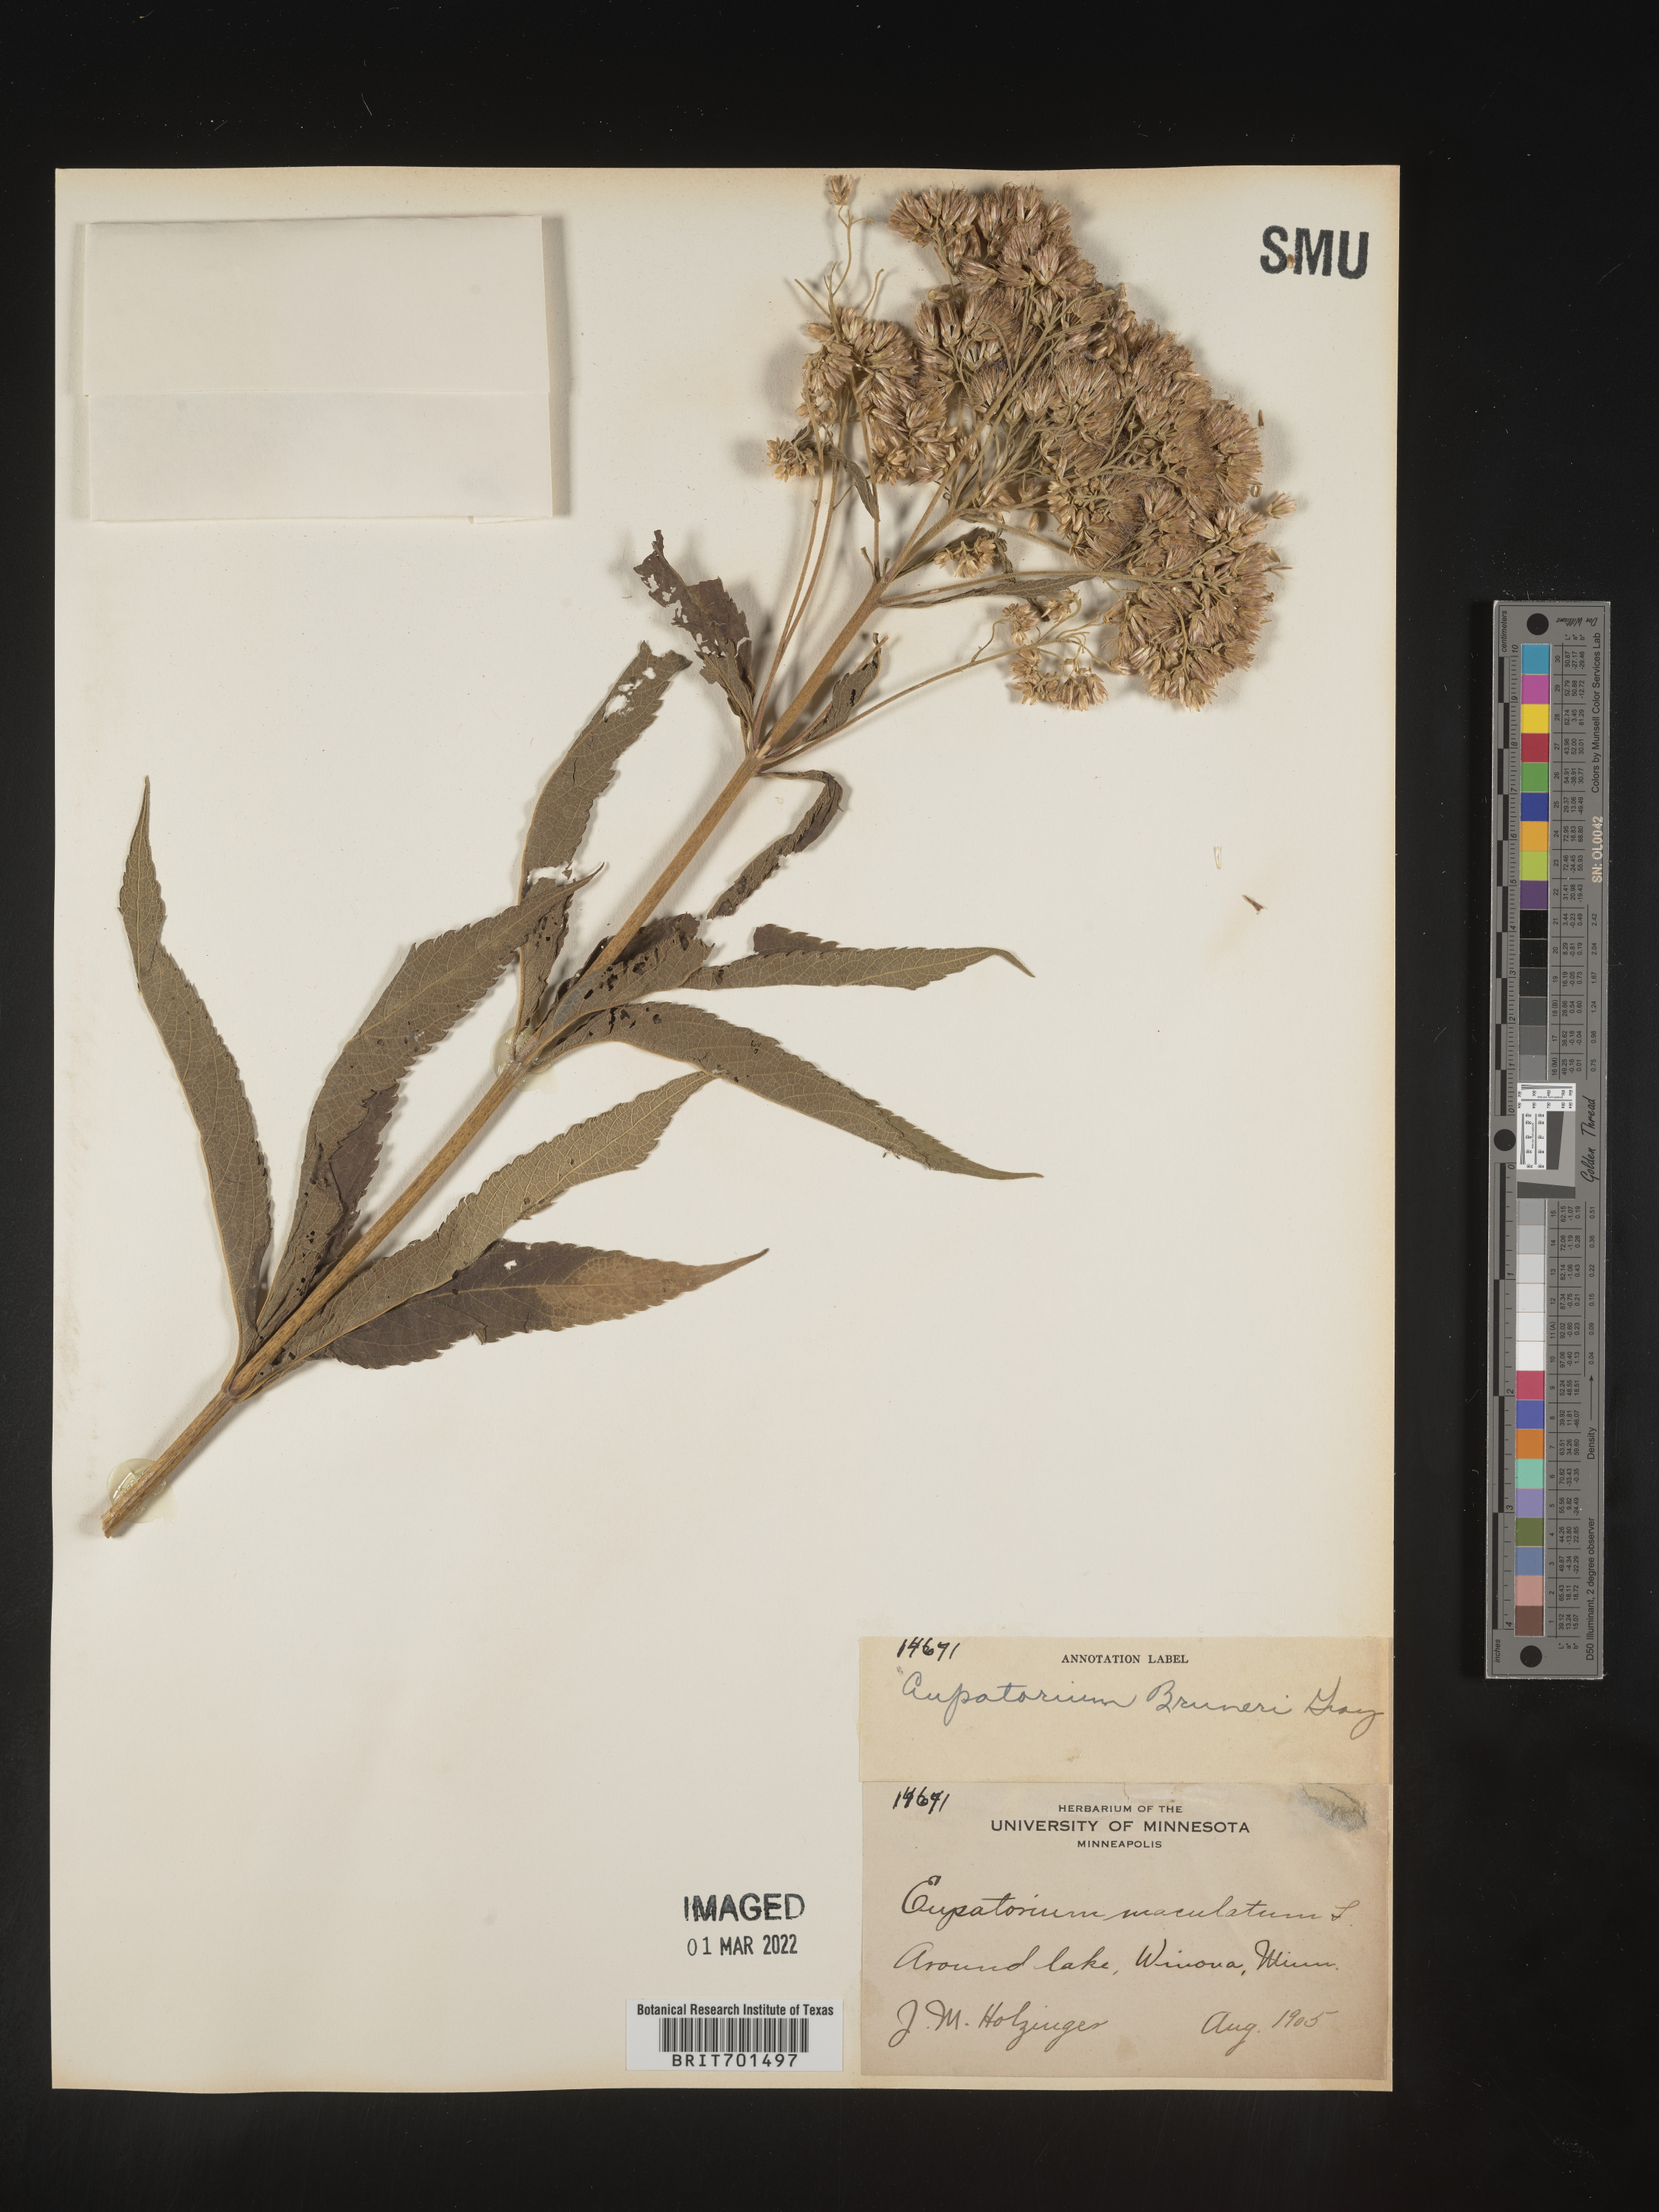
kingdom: Plantae
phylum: Tracheophyta
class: Magnoliopsida
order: Asterales
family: Asteraceae
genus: Eutrochium
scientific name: Eutrochium maculatum
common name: Spotted joe pye weed
